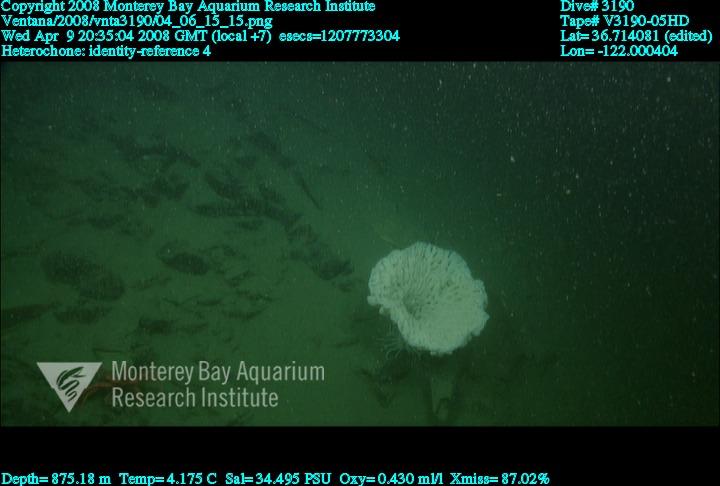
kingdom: Animalia
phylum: Porifera
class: Hexactinellida
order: Sceptrulophora
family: Aphrocallistidae
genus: Heterochone
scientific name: Heterochone
